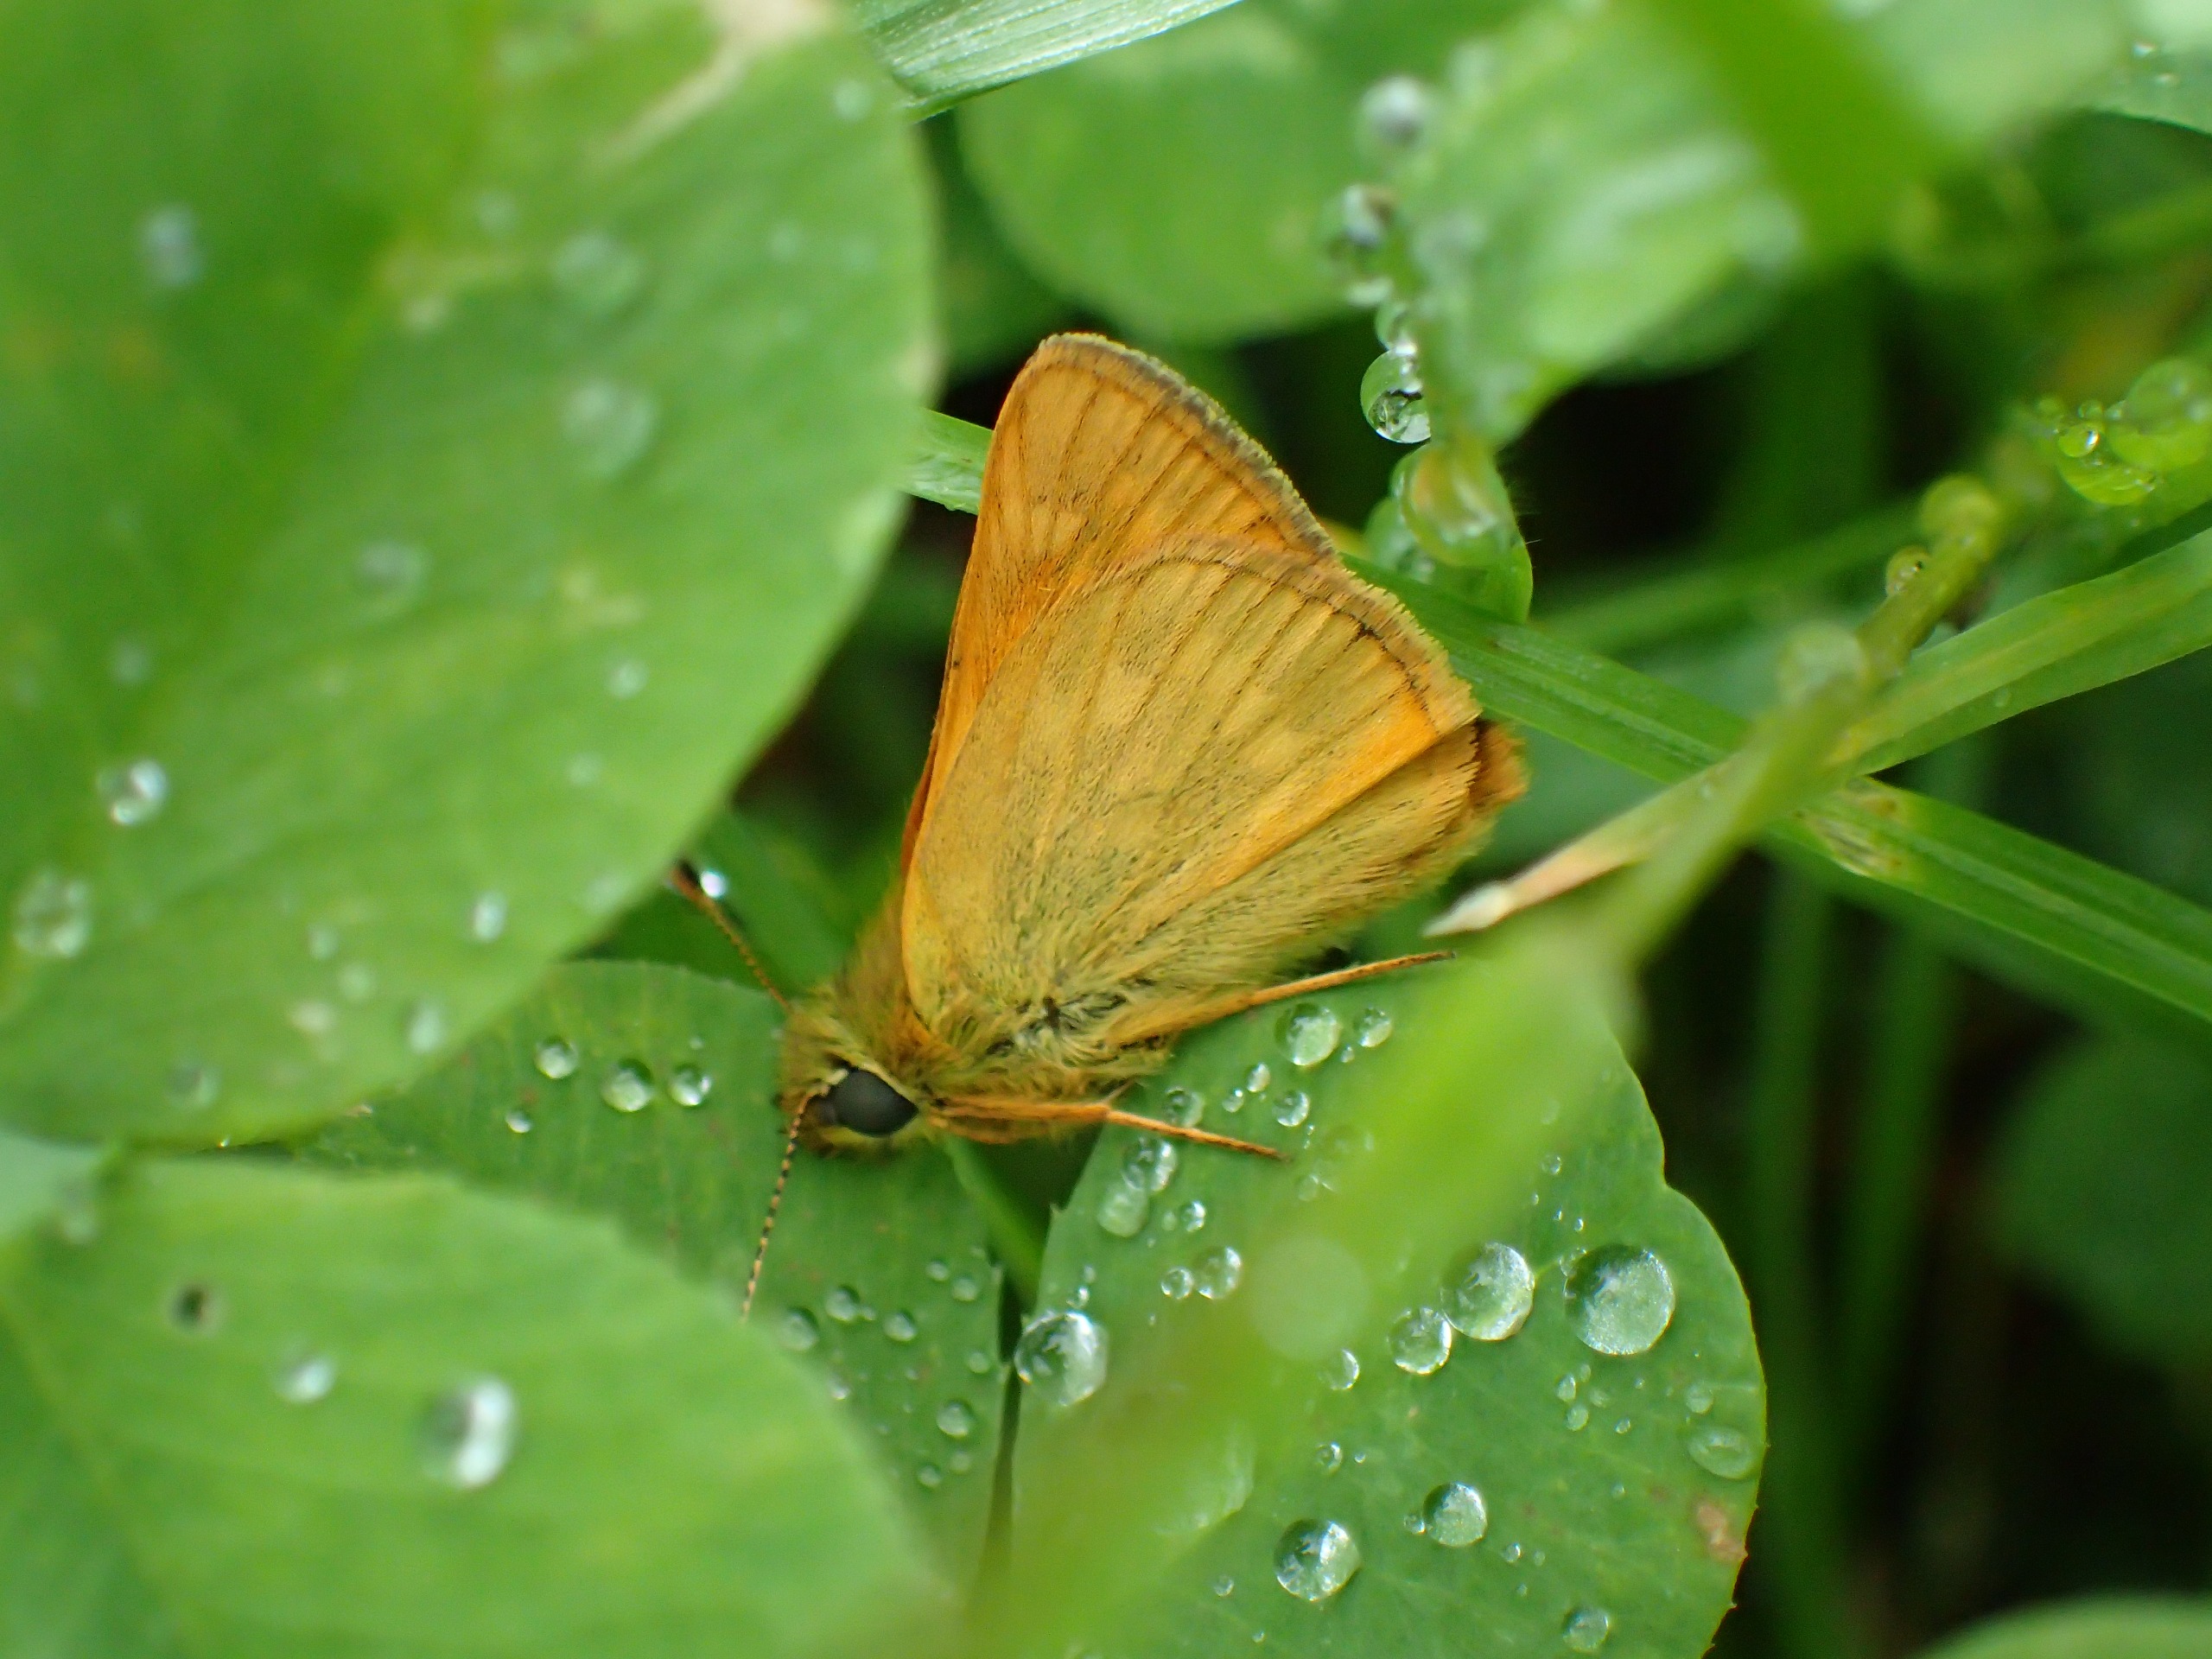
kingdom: Animalia
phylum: Arthropoda
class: Insecta
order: Lepidoptera
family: Hesperiidae
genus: Ochlodes
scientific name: Ochlodes venata
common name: Stor bredpande
